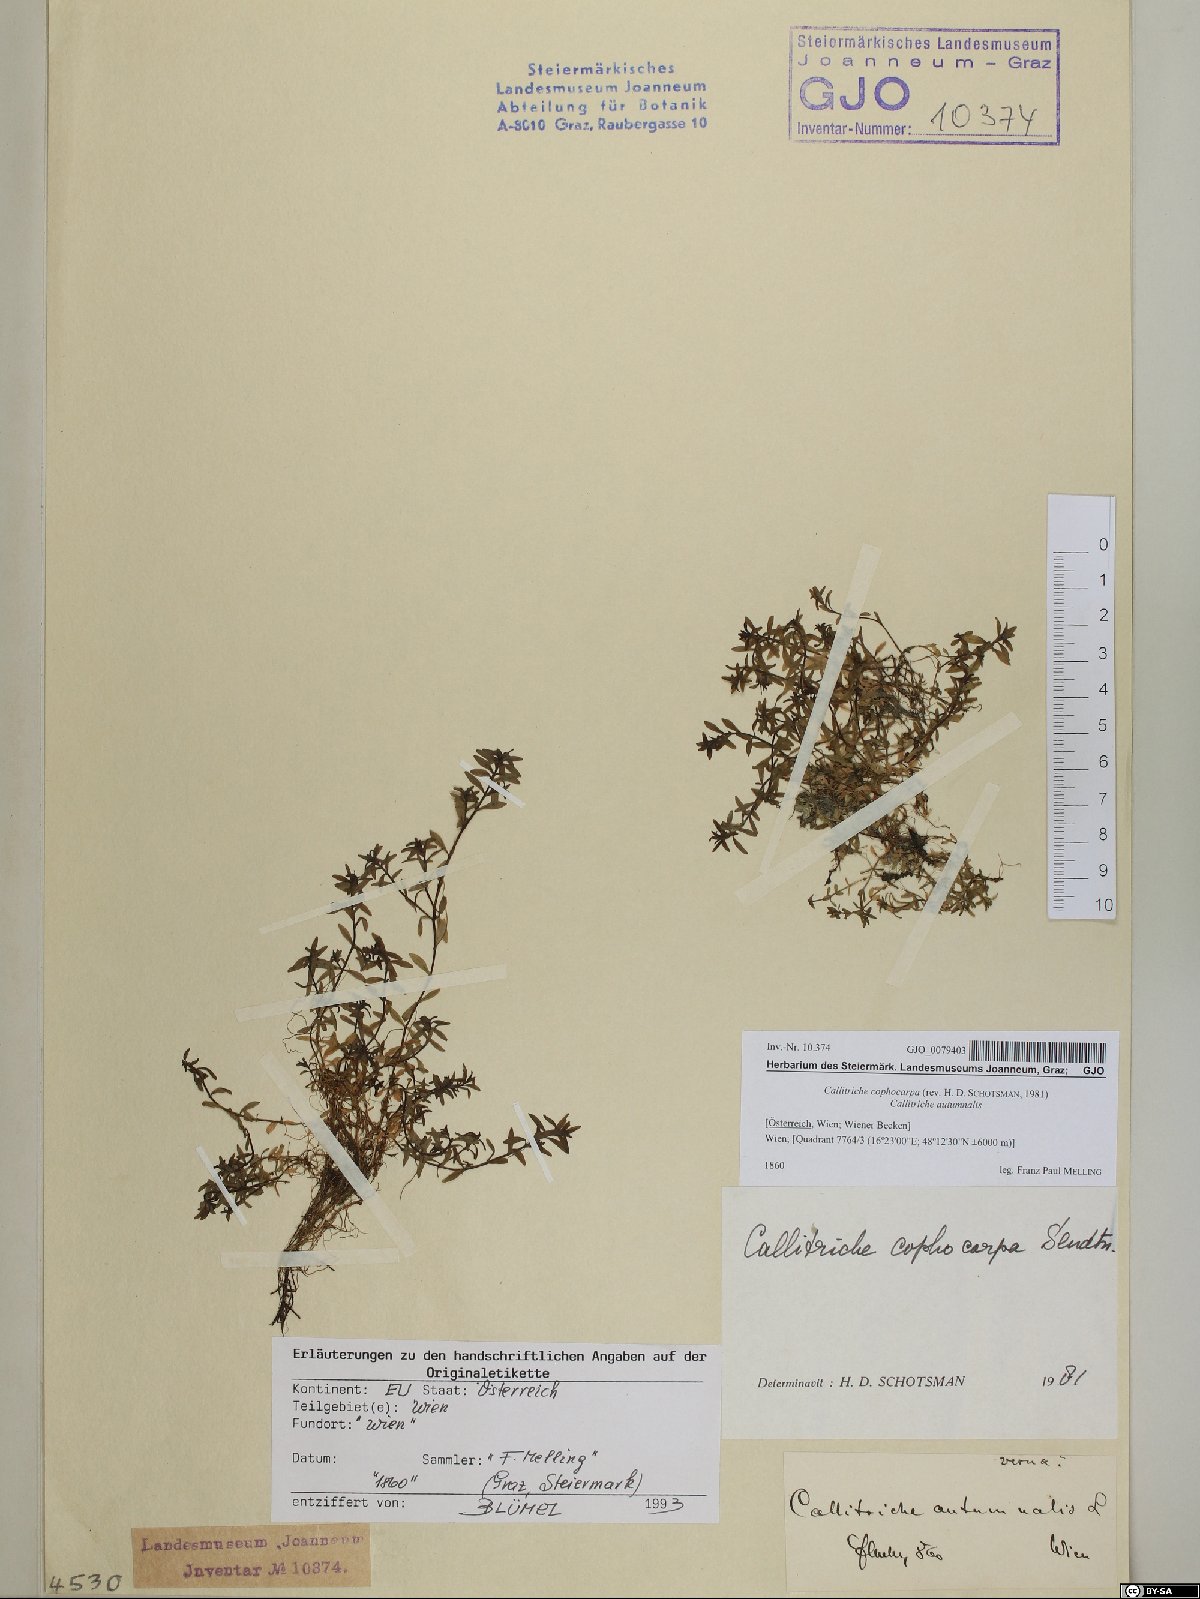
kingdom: Plantae
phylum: Tracheophyta
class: Magnoliopsida
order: Lamiales
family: Plantaginaceae
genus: Callitriche
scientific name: Callitriche cophocarpa
